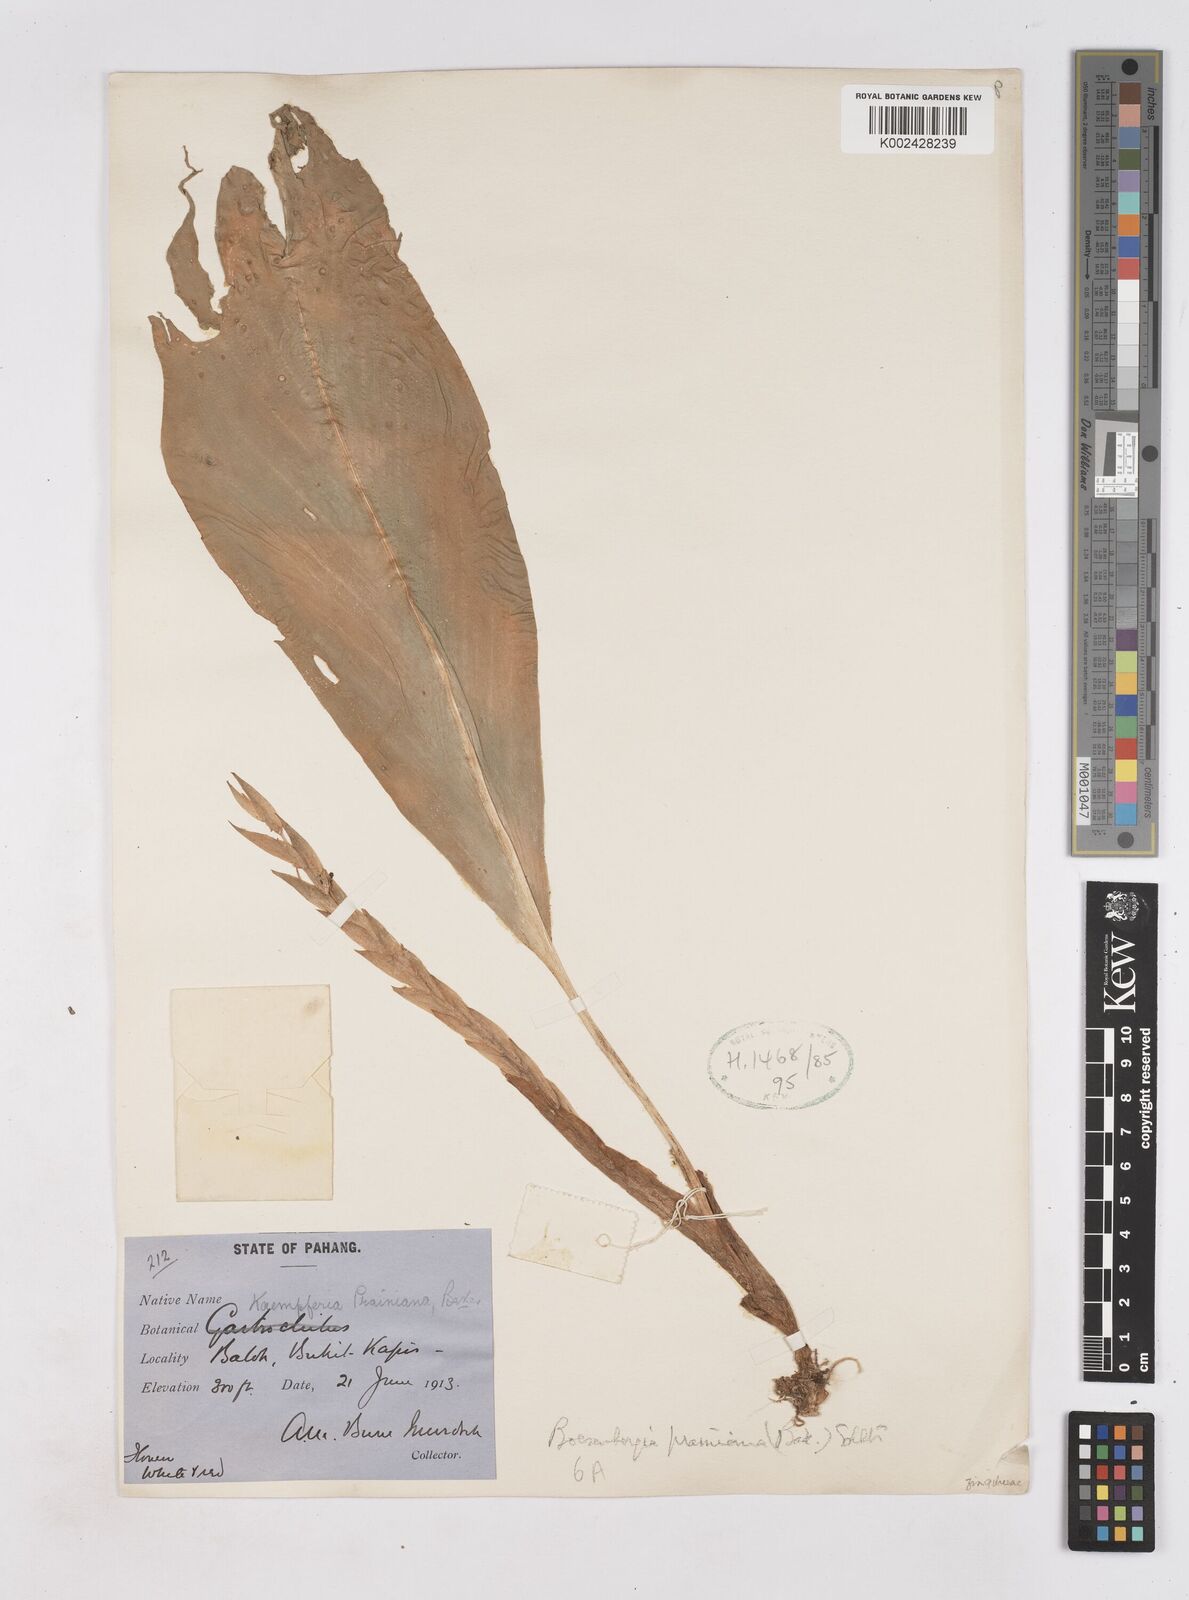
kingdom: Plantae
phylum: Tracheophyta
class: Liliopsida
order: Zingiberales
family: Zingiberaceae
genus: Boesenbergia
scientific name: Boesenbergia prainiana
